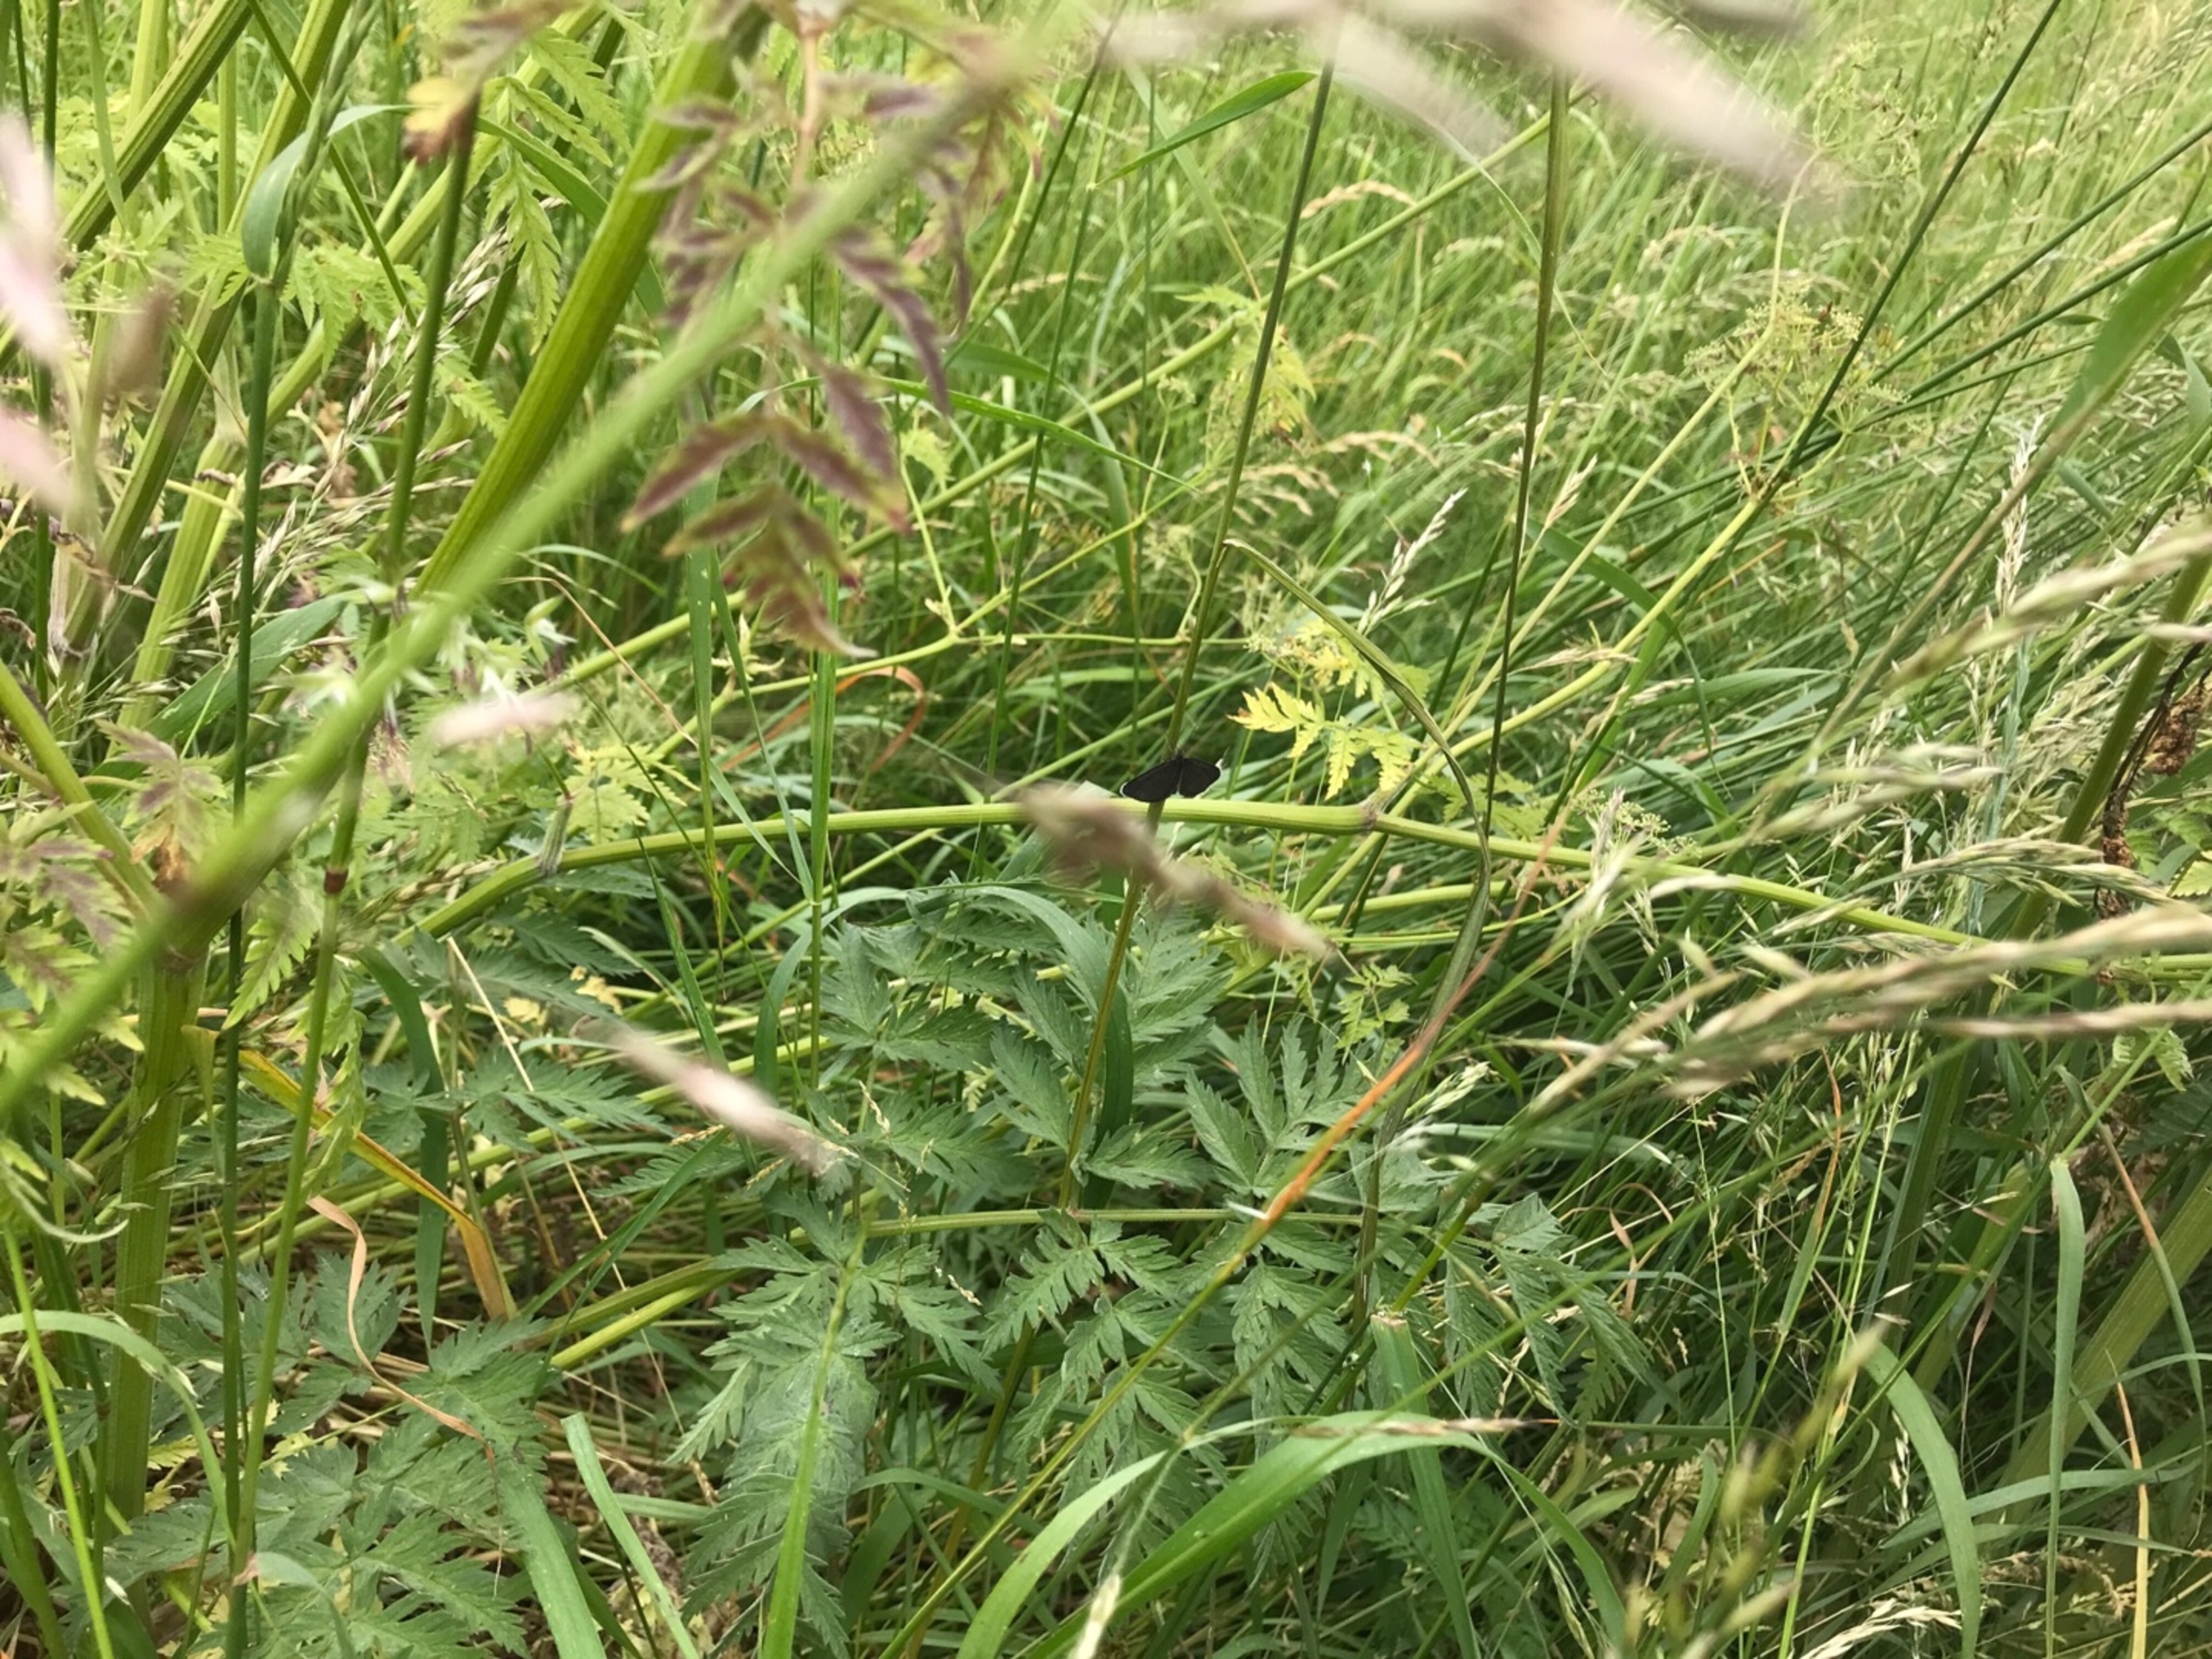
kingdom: Animalia
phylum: Arthropoda
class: Insecta
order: Lepidoptera
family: Geometridae
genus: Odezia
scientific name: Odezia atrata
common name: Sort måler
